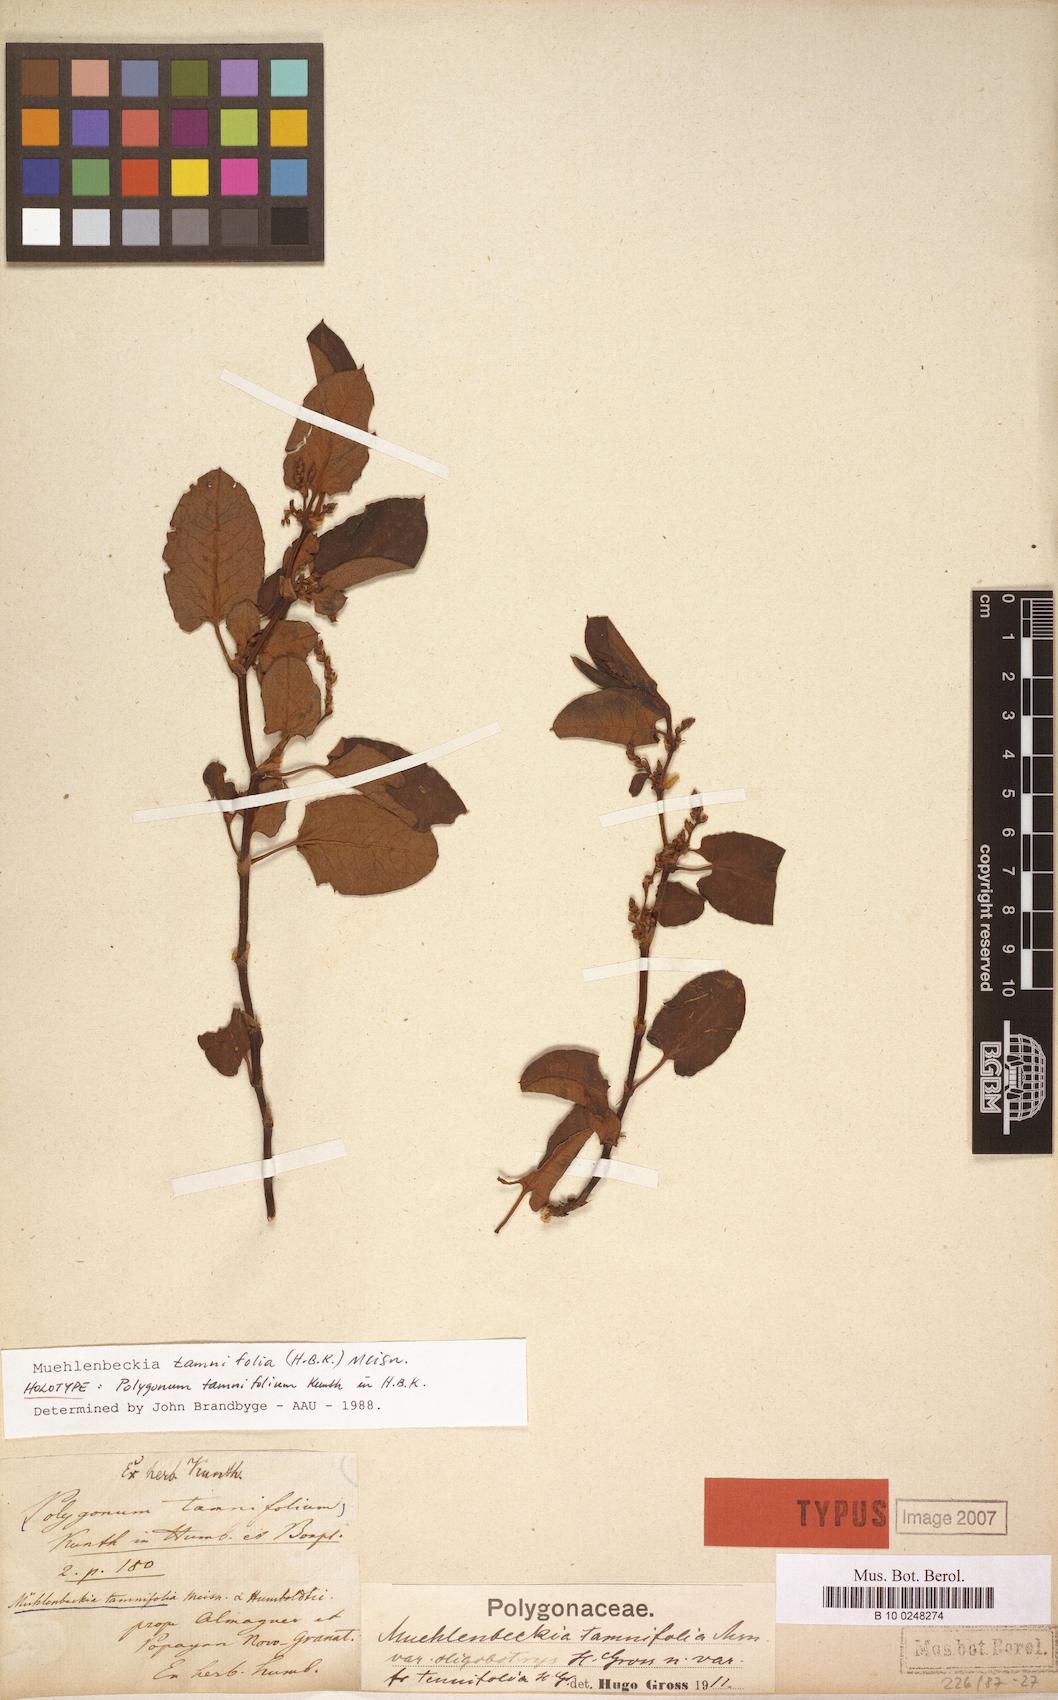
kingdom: Plantae
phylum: Tracheophyta
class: Magnoliopsida
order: Caryophyllales
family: Polygonaceae
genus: Muehlenbeckia
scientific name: Muehlenbeckia tamnifolia
